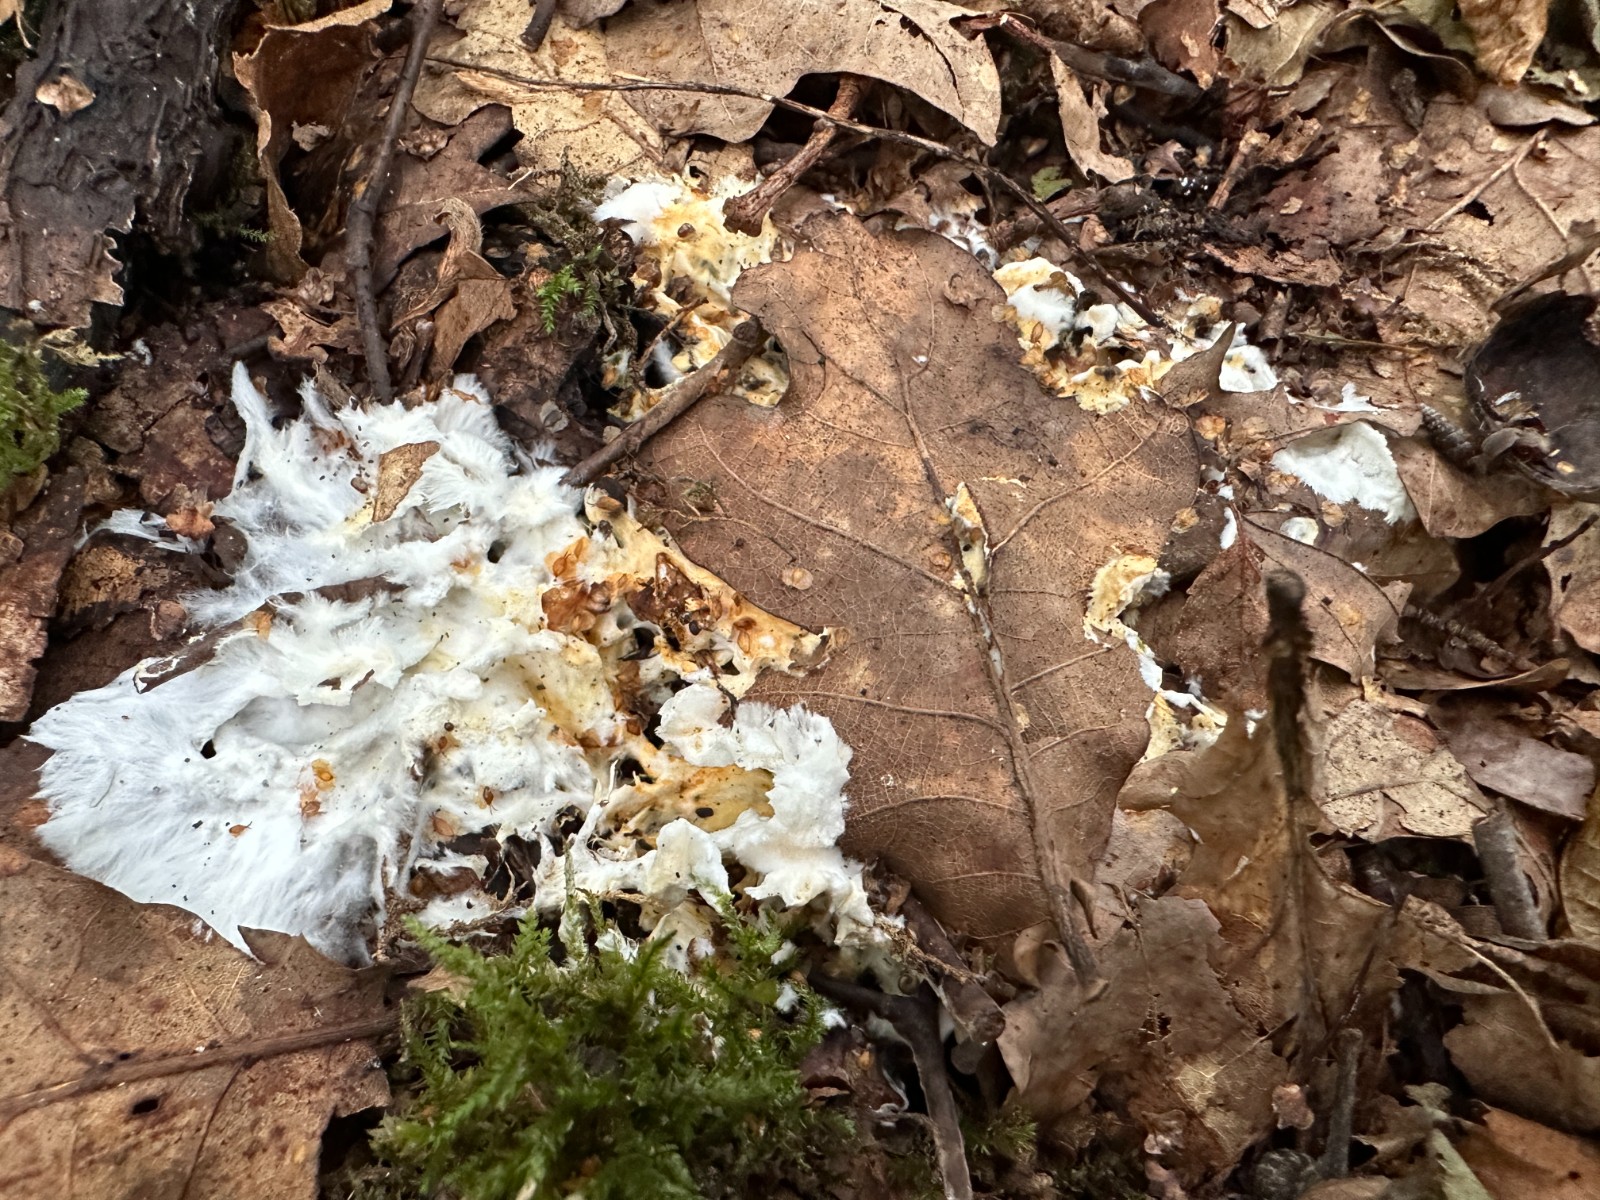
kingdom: Fungi
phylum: Basidiomycota
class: Agaricomycetes
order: Polyporales
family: Steccherinaceae
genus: Loweomyces
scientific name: Loweomyces wynneae
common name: krybende blødporesvamp
